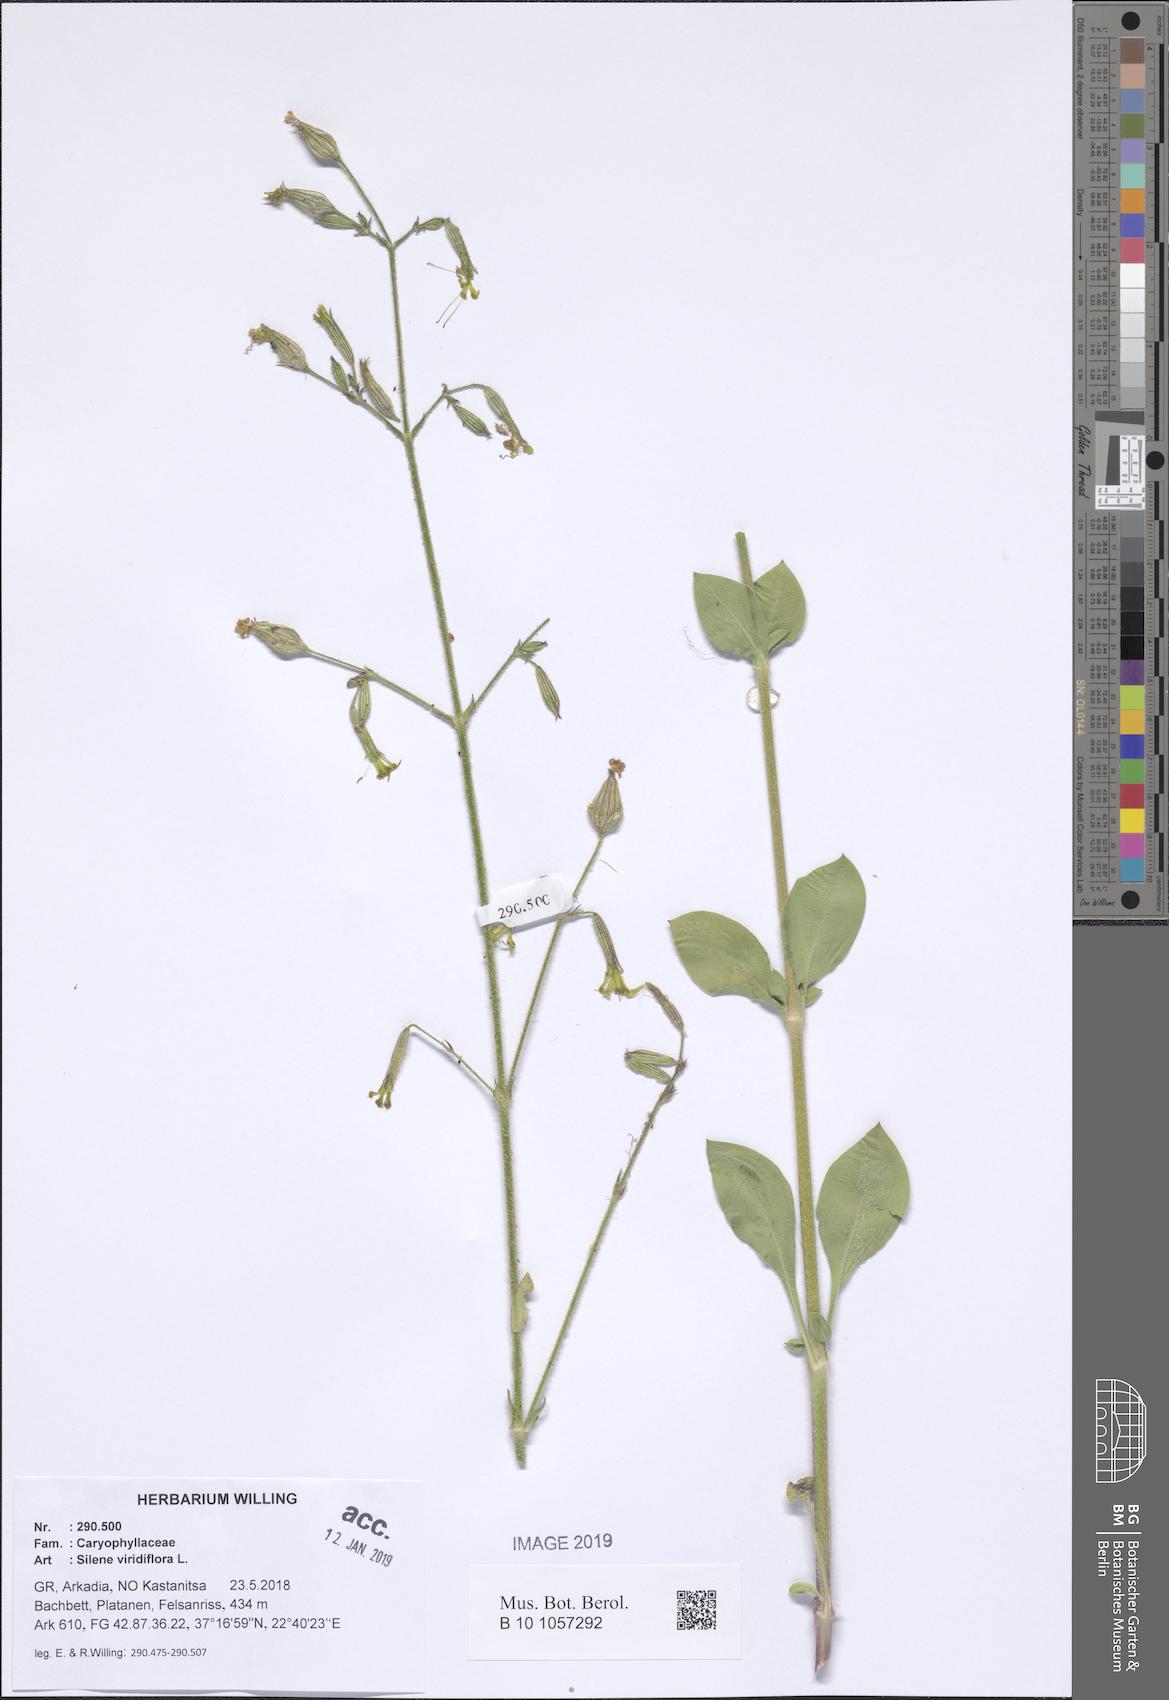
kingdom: Plantae
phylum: Tracheophyta
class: Magnoliopsida
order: Caryophyllales
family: Caryophyllaceae
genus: Silene
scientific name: Silene viridiflora
